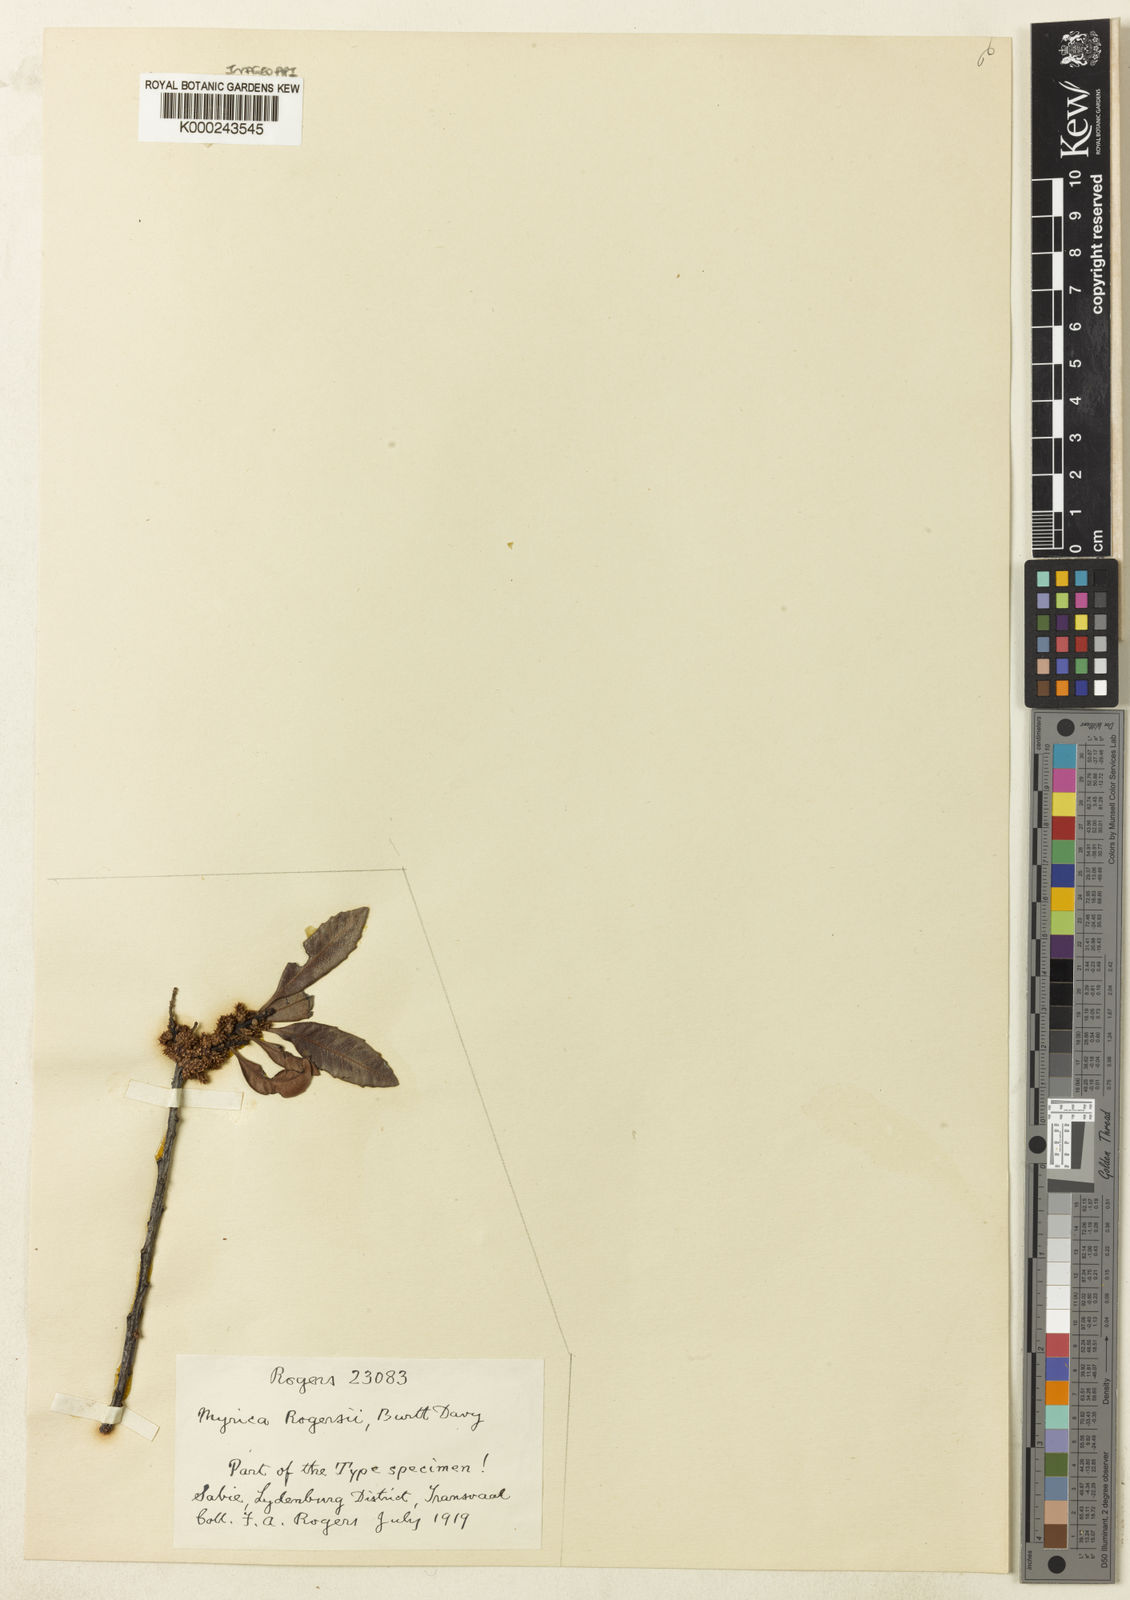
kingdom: Plantae
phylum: Tracheophyta
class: Magnoliopsida
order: Fagales
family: Myricaceae
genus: Morella
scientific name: Morella pilulifera
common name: Broad-leaved waxberry
